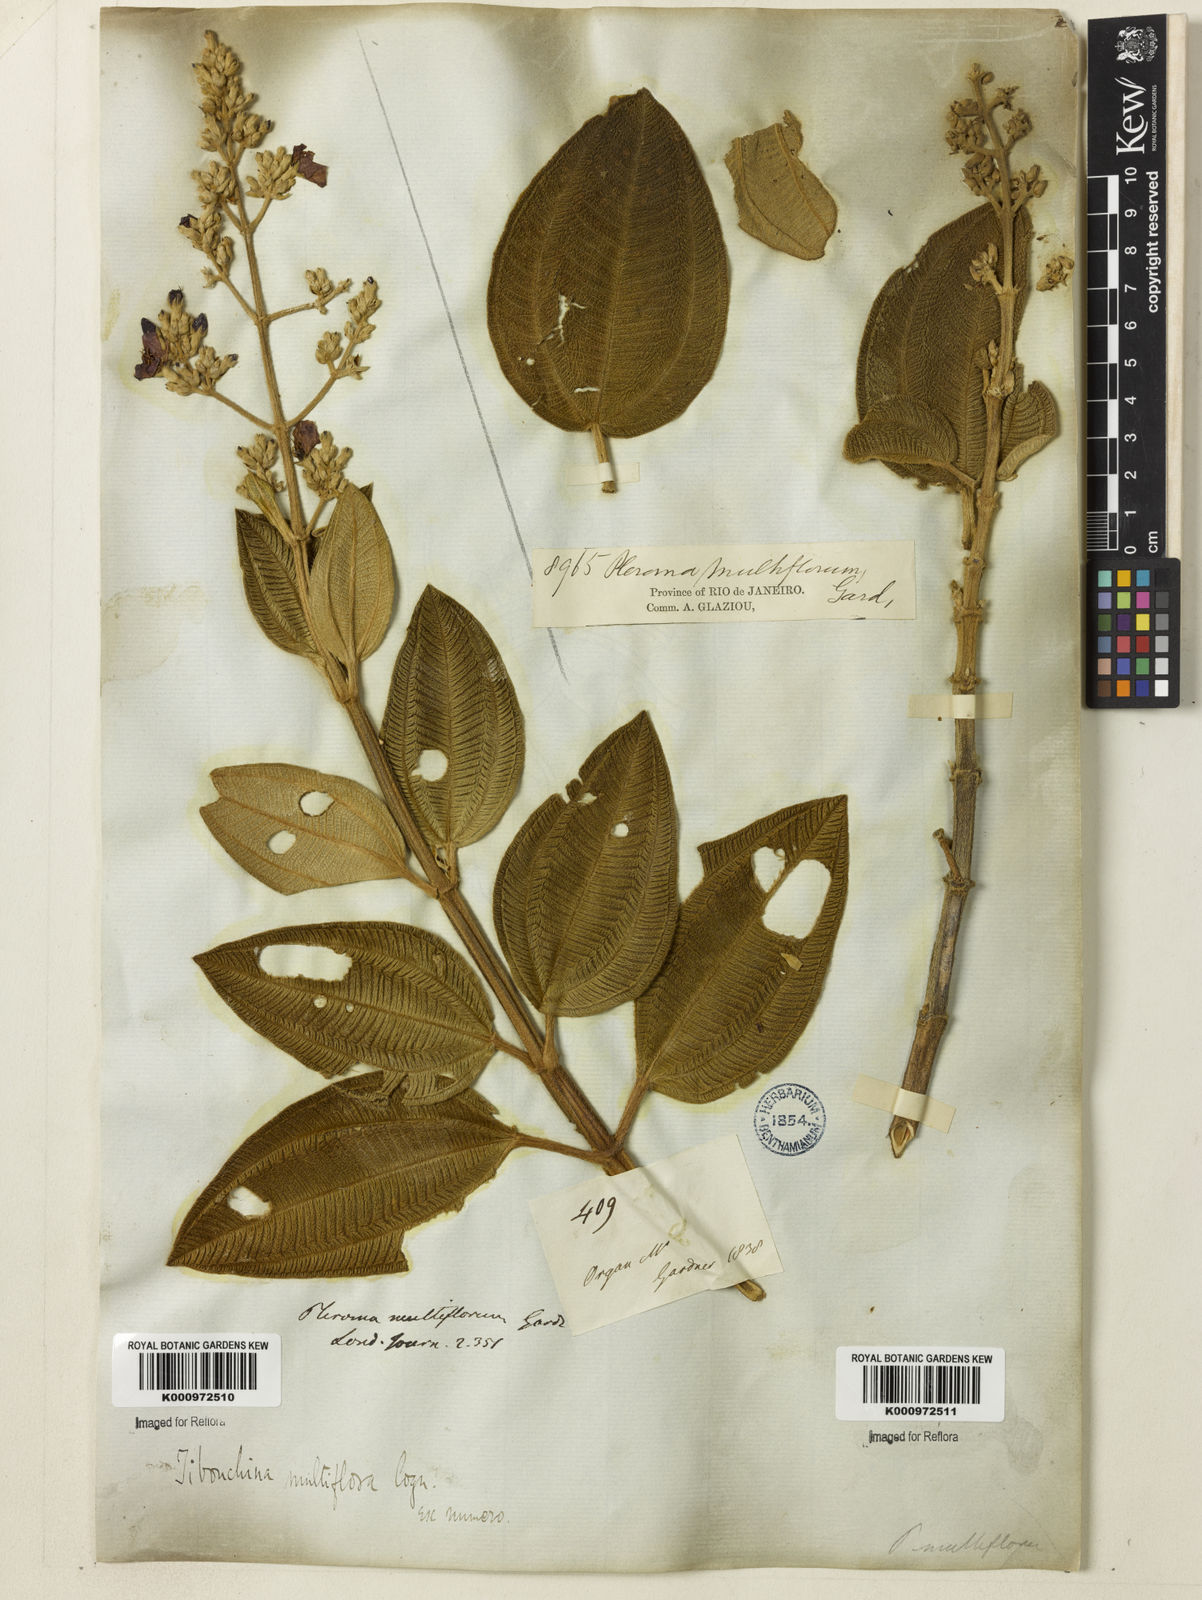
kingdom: Plantae
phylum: Tracheophyta
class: Magnoliopsida
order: Myrtales
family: Melastomataceae
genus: Pleroma
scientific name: Pleroma heteromallum
